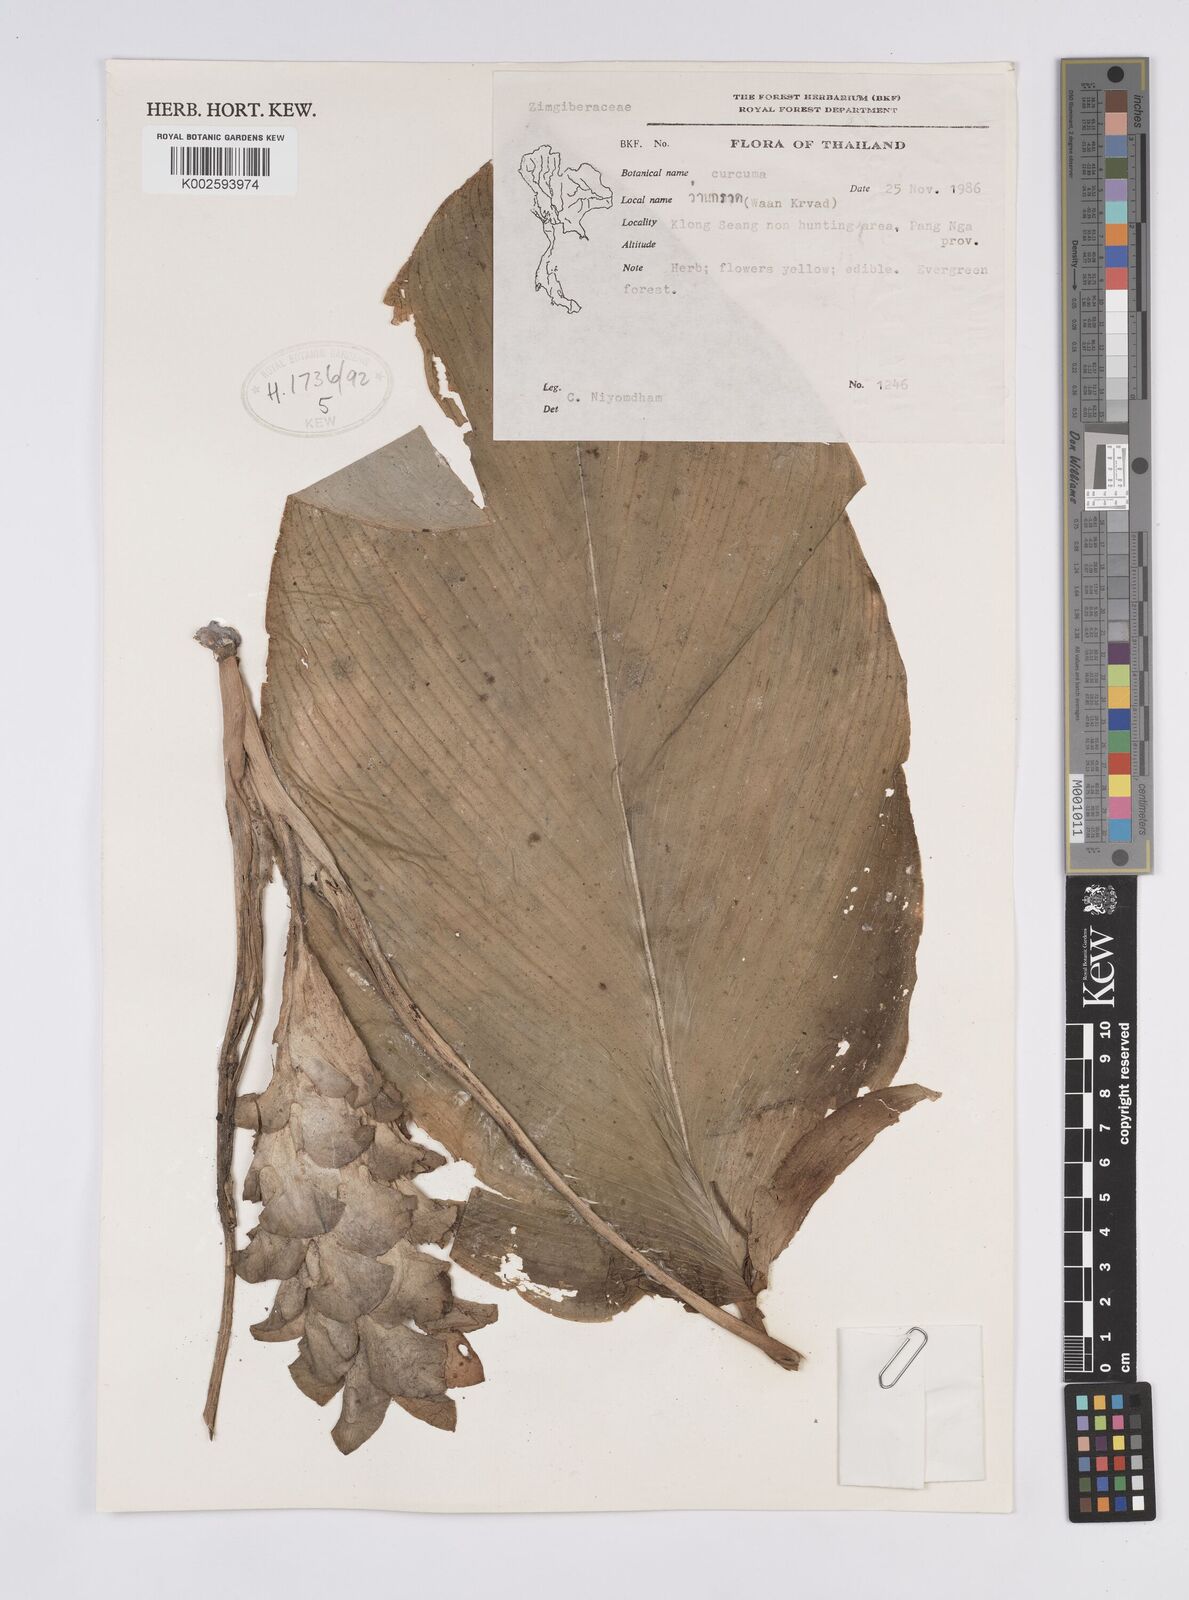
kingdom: Plantae
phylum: Tracheophyta
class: Liliopsida
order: Zingiberales
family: Zingiberaceae
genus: Curcuma
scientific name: Curcuma
